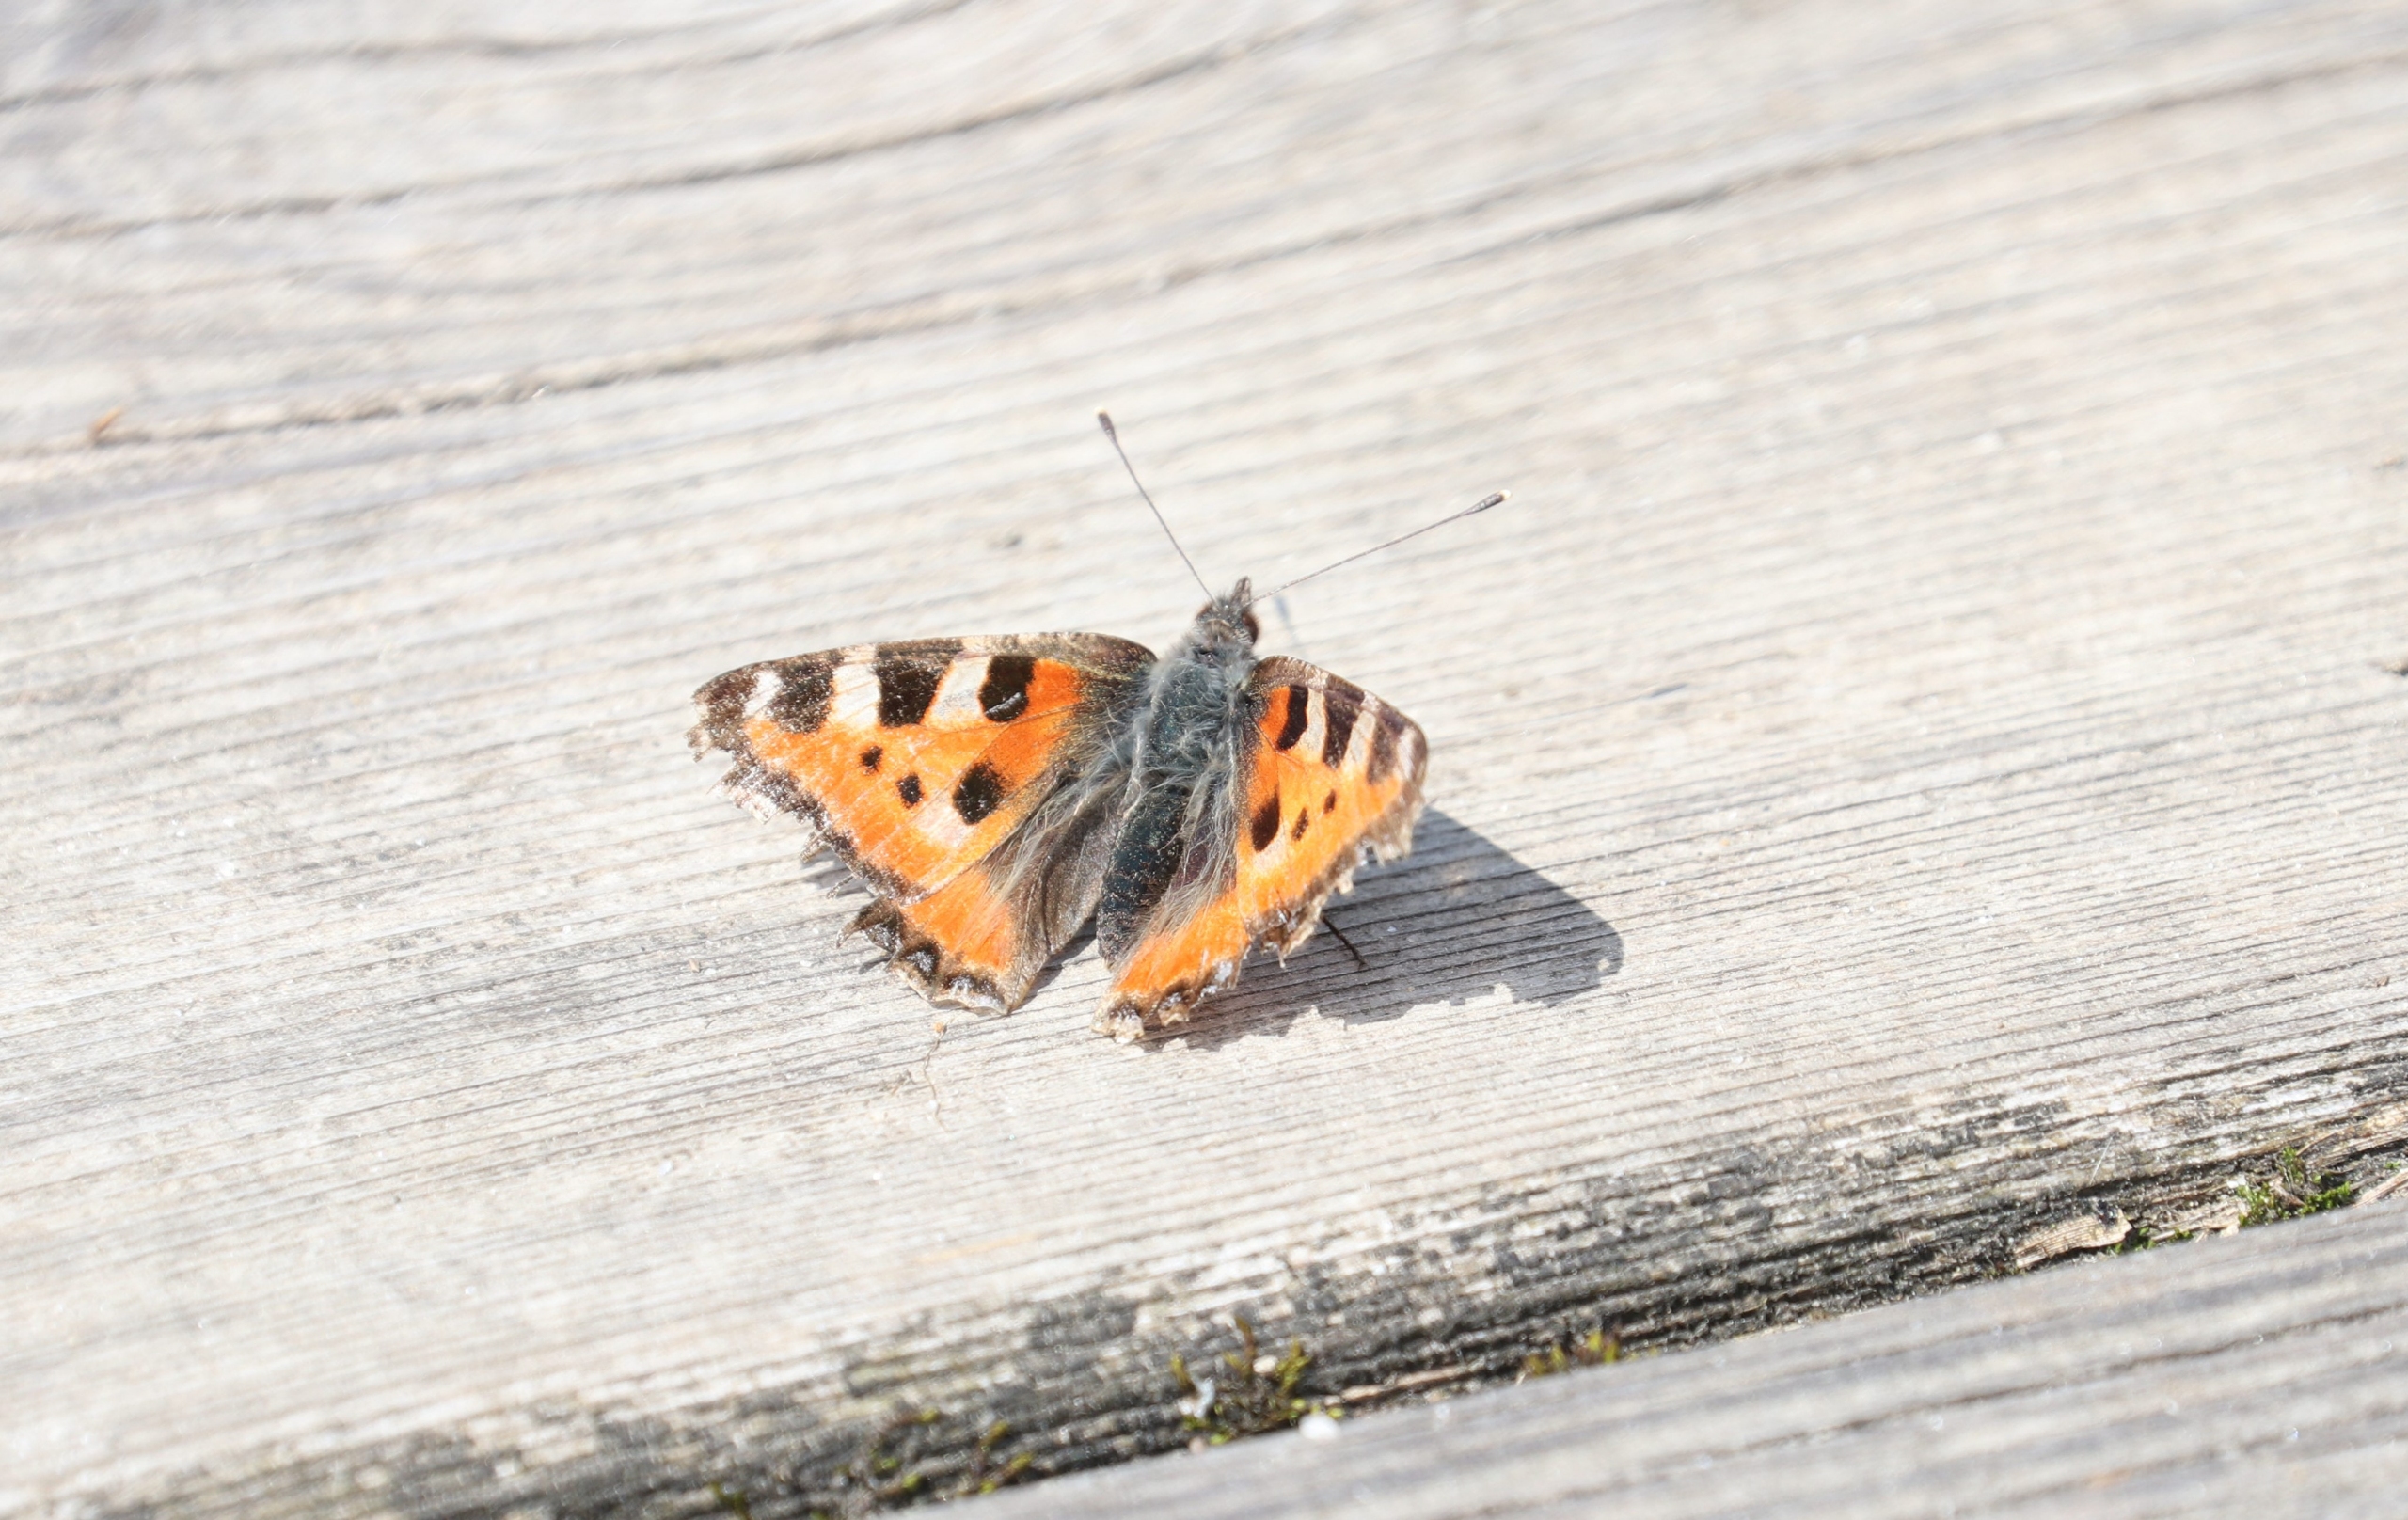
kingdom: Animalia
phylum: Arthropoda
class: Insecta
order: Lepidoptera
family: Nymphalidae
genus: Aglais
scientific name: Aglais urticae
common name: Nældens takvinge
